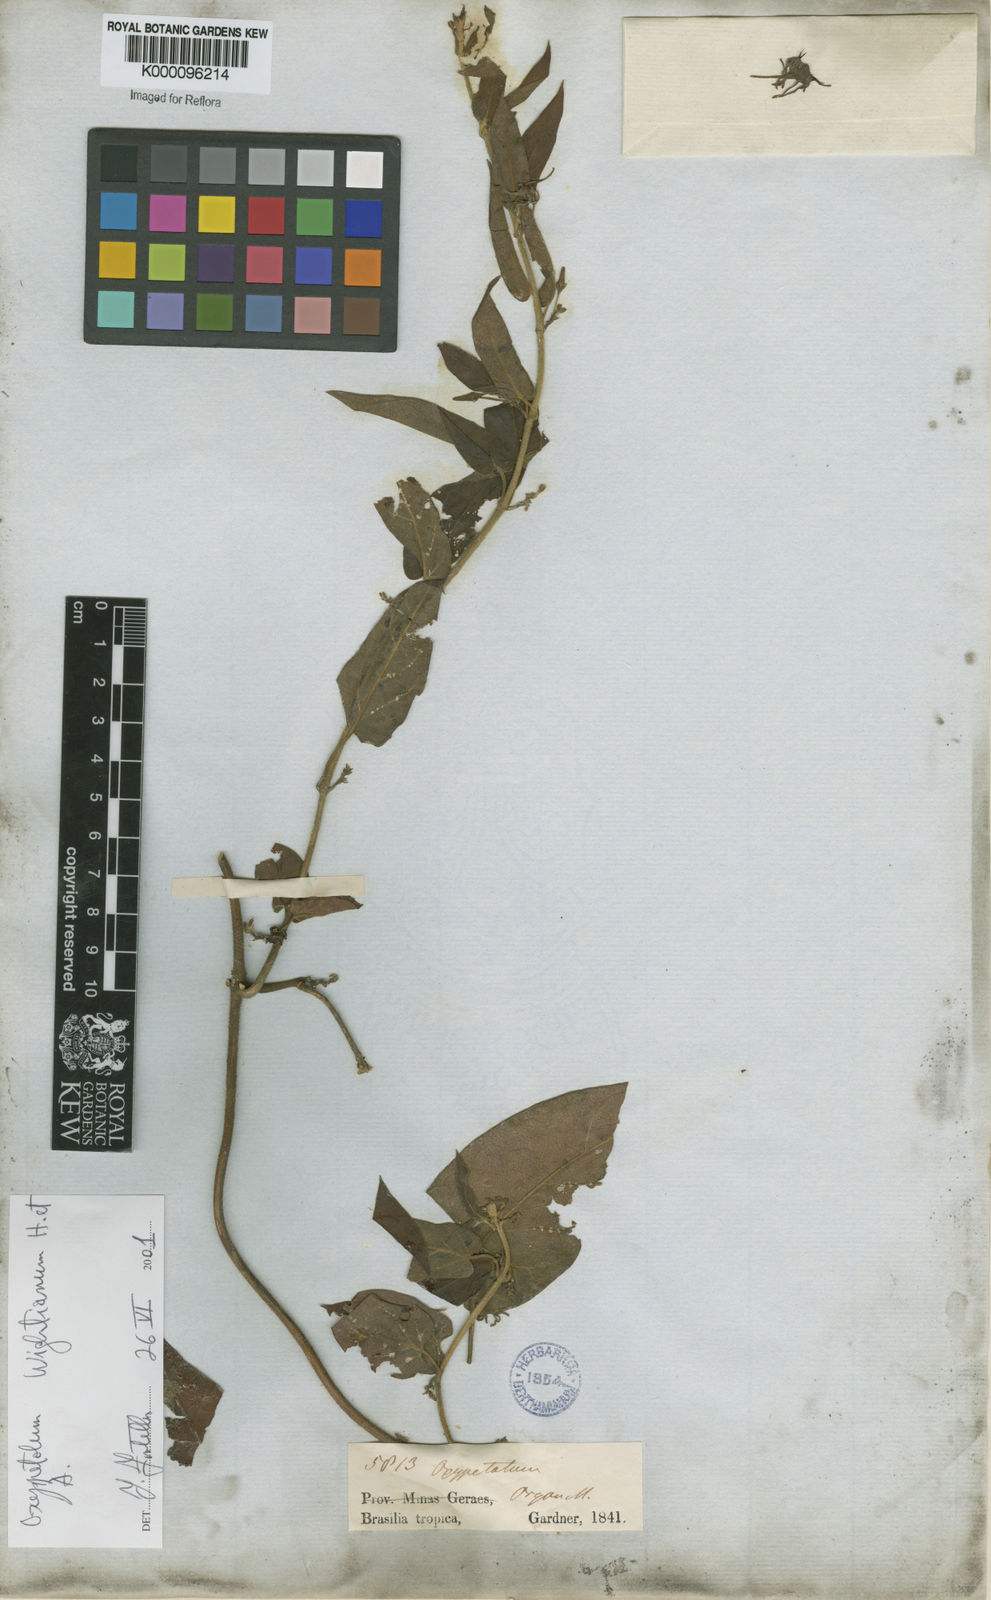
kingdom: Plantae
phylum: Tracheophyta
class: Magnoliopsida
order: Gentianales
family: Apocynaceae
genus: Oxypetalum
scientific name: Oxypetalum wightianum
